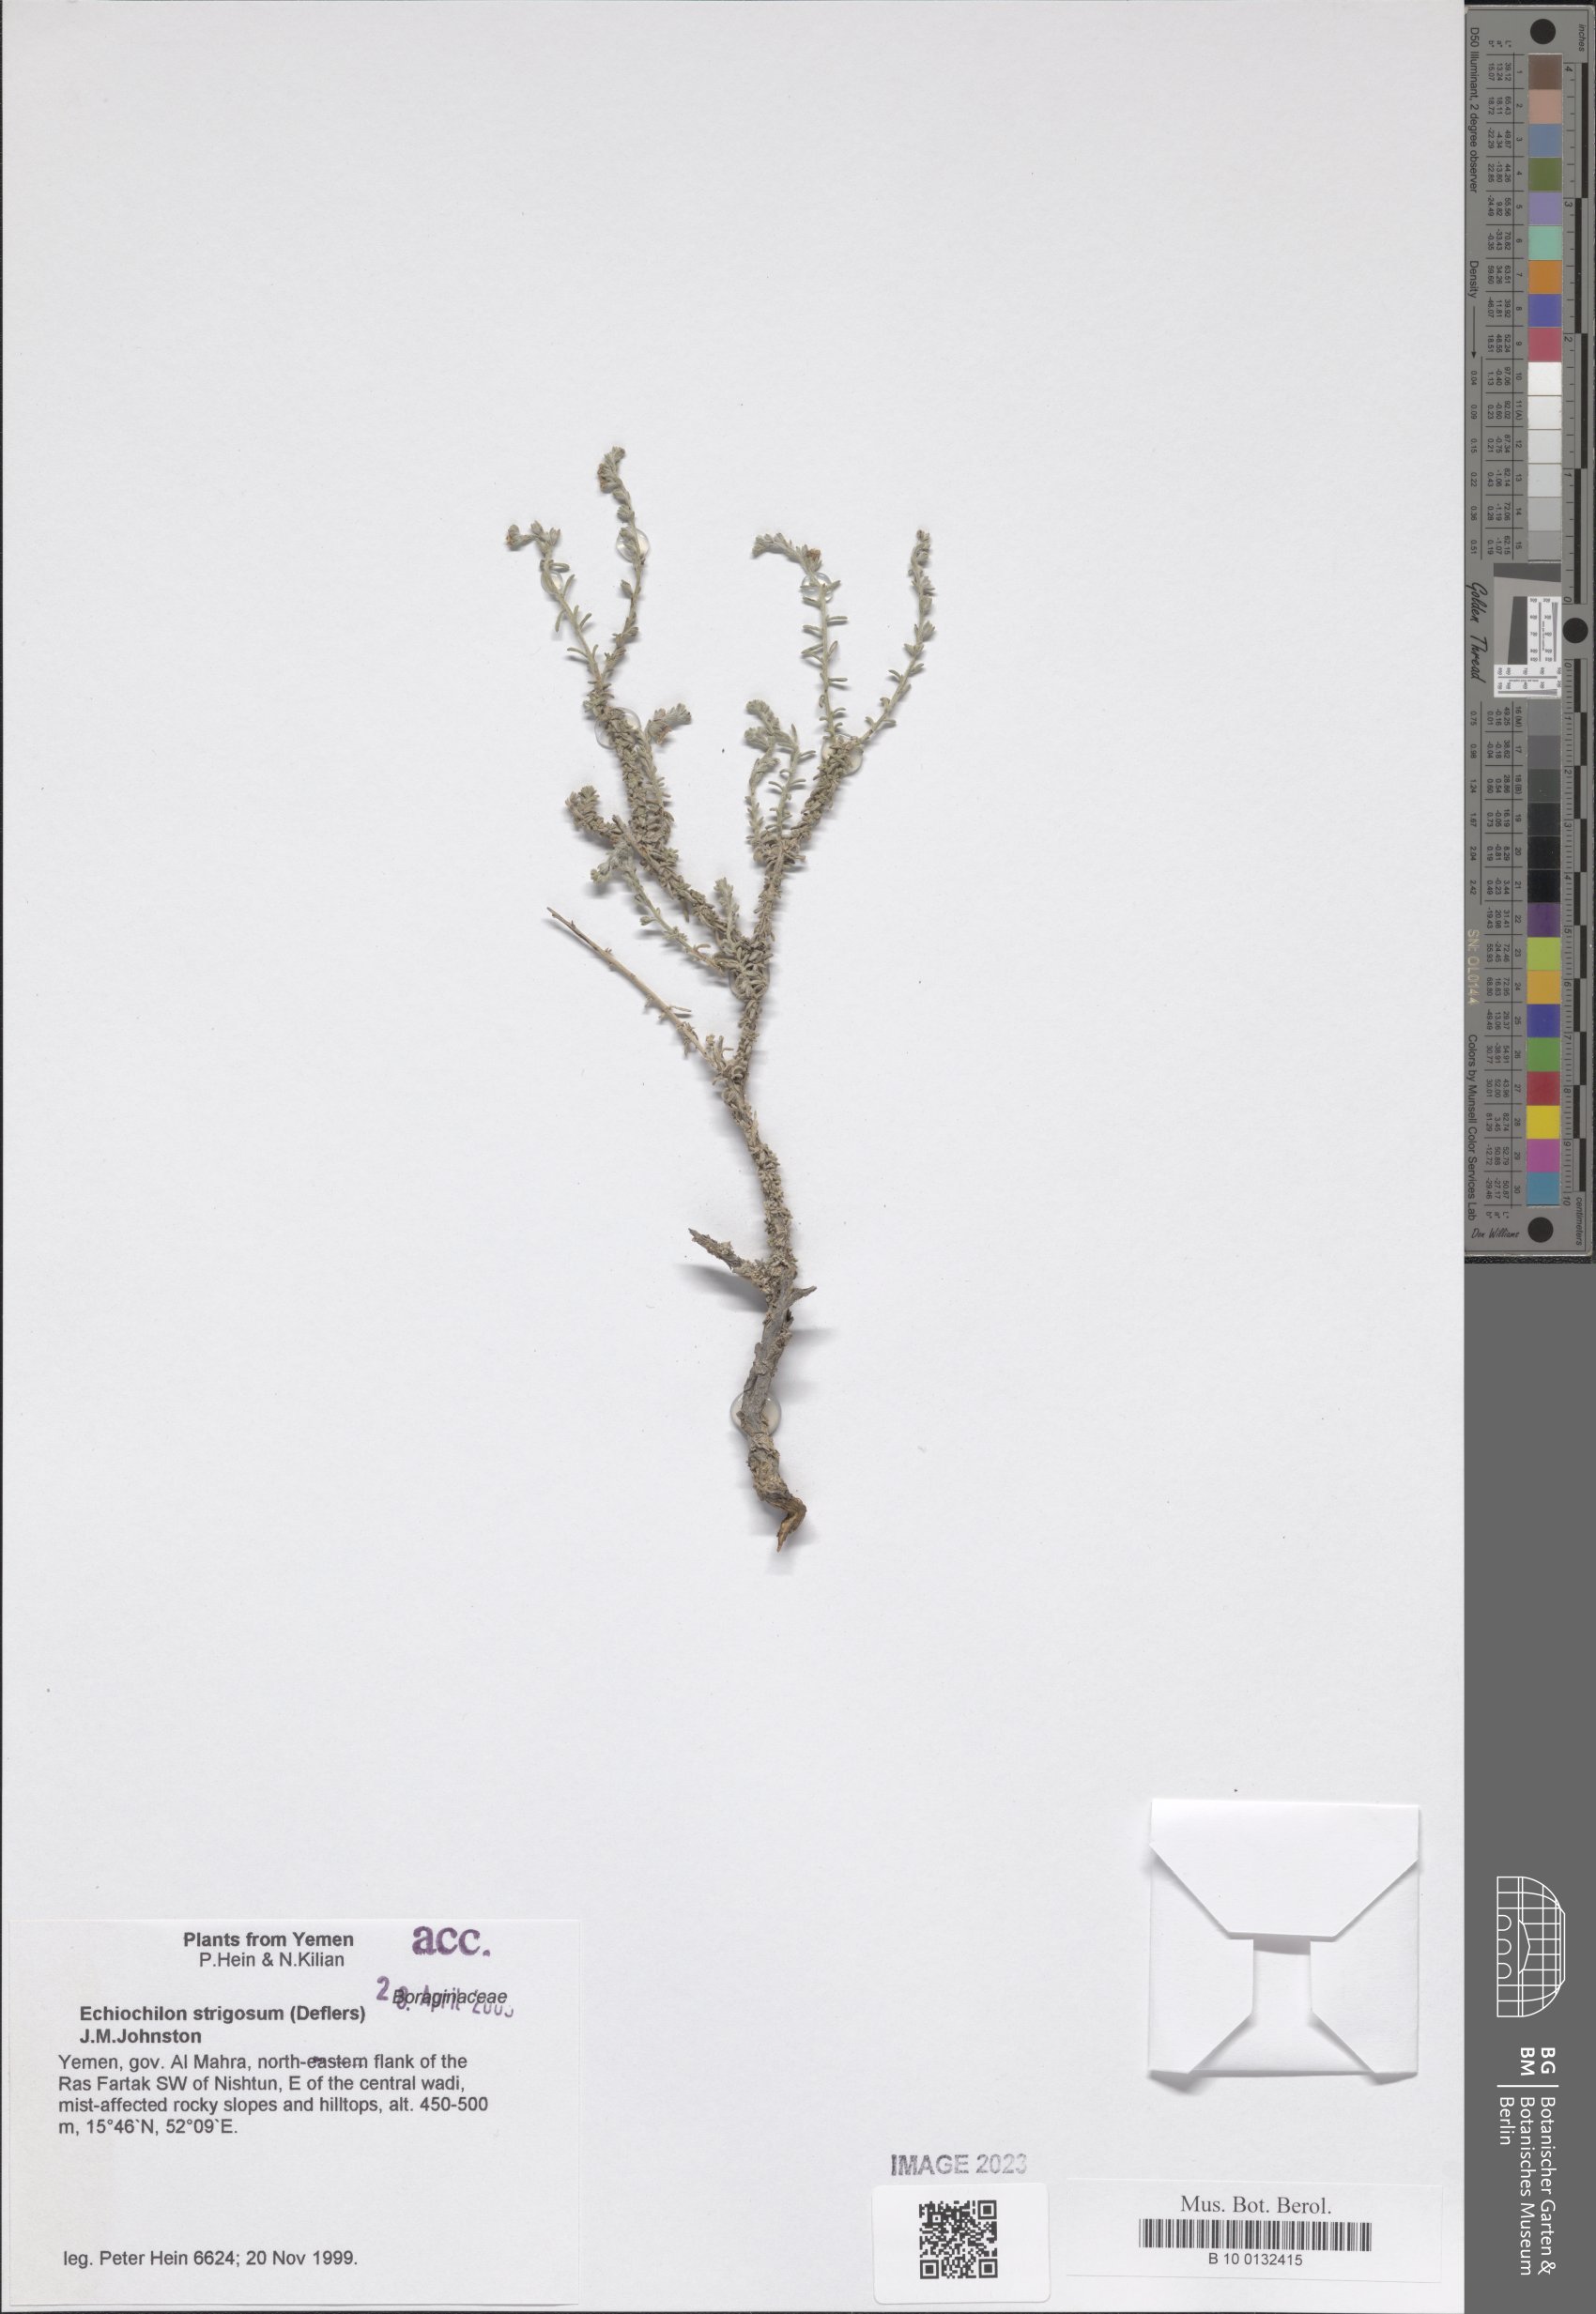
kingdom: Plantae
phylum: Tracheophyta
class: Magnoliopsida
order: Boraginales
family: Boraginaceae
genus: Echiochilon
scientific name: Echiochilon persicum
